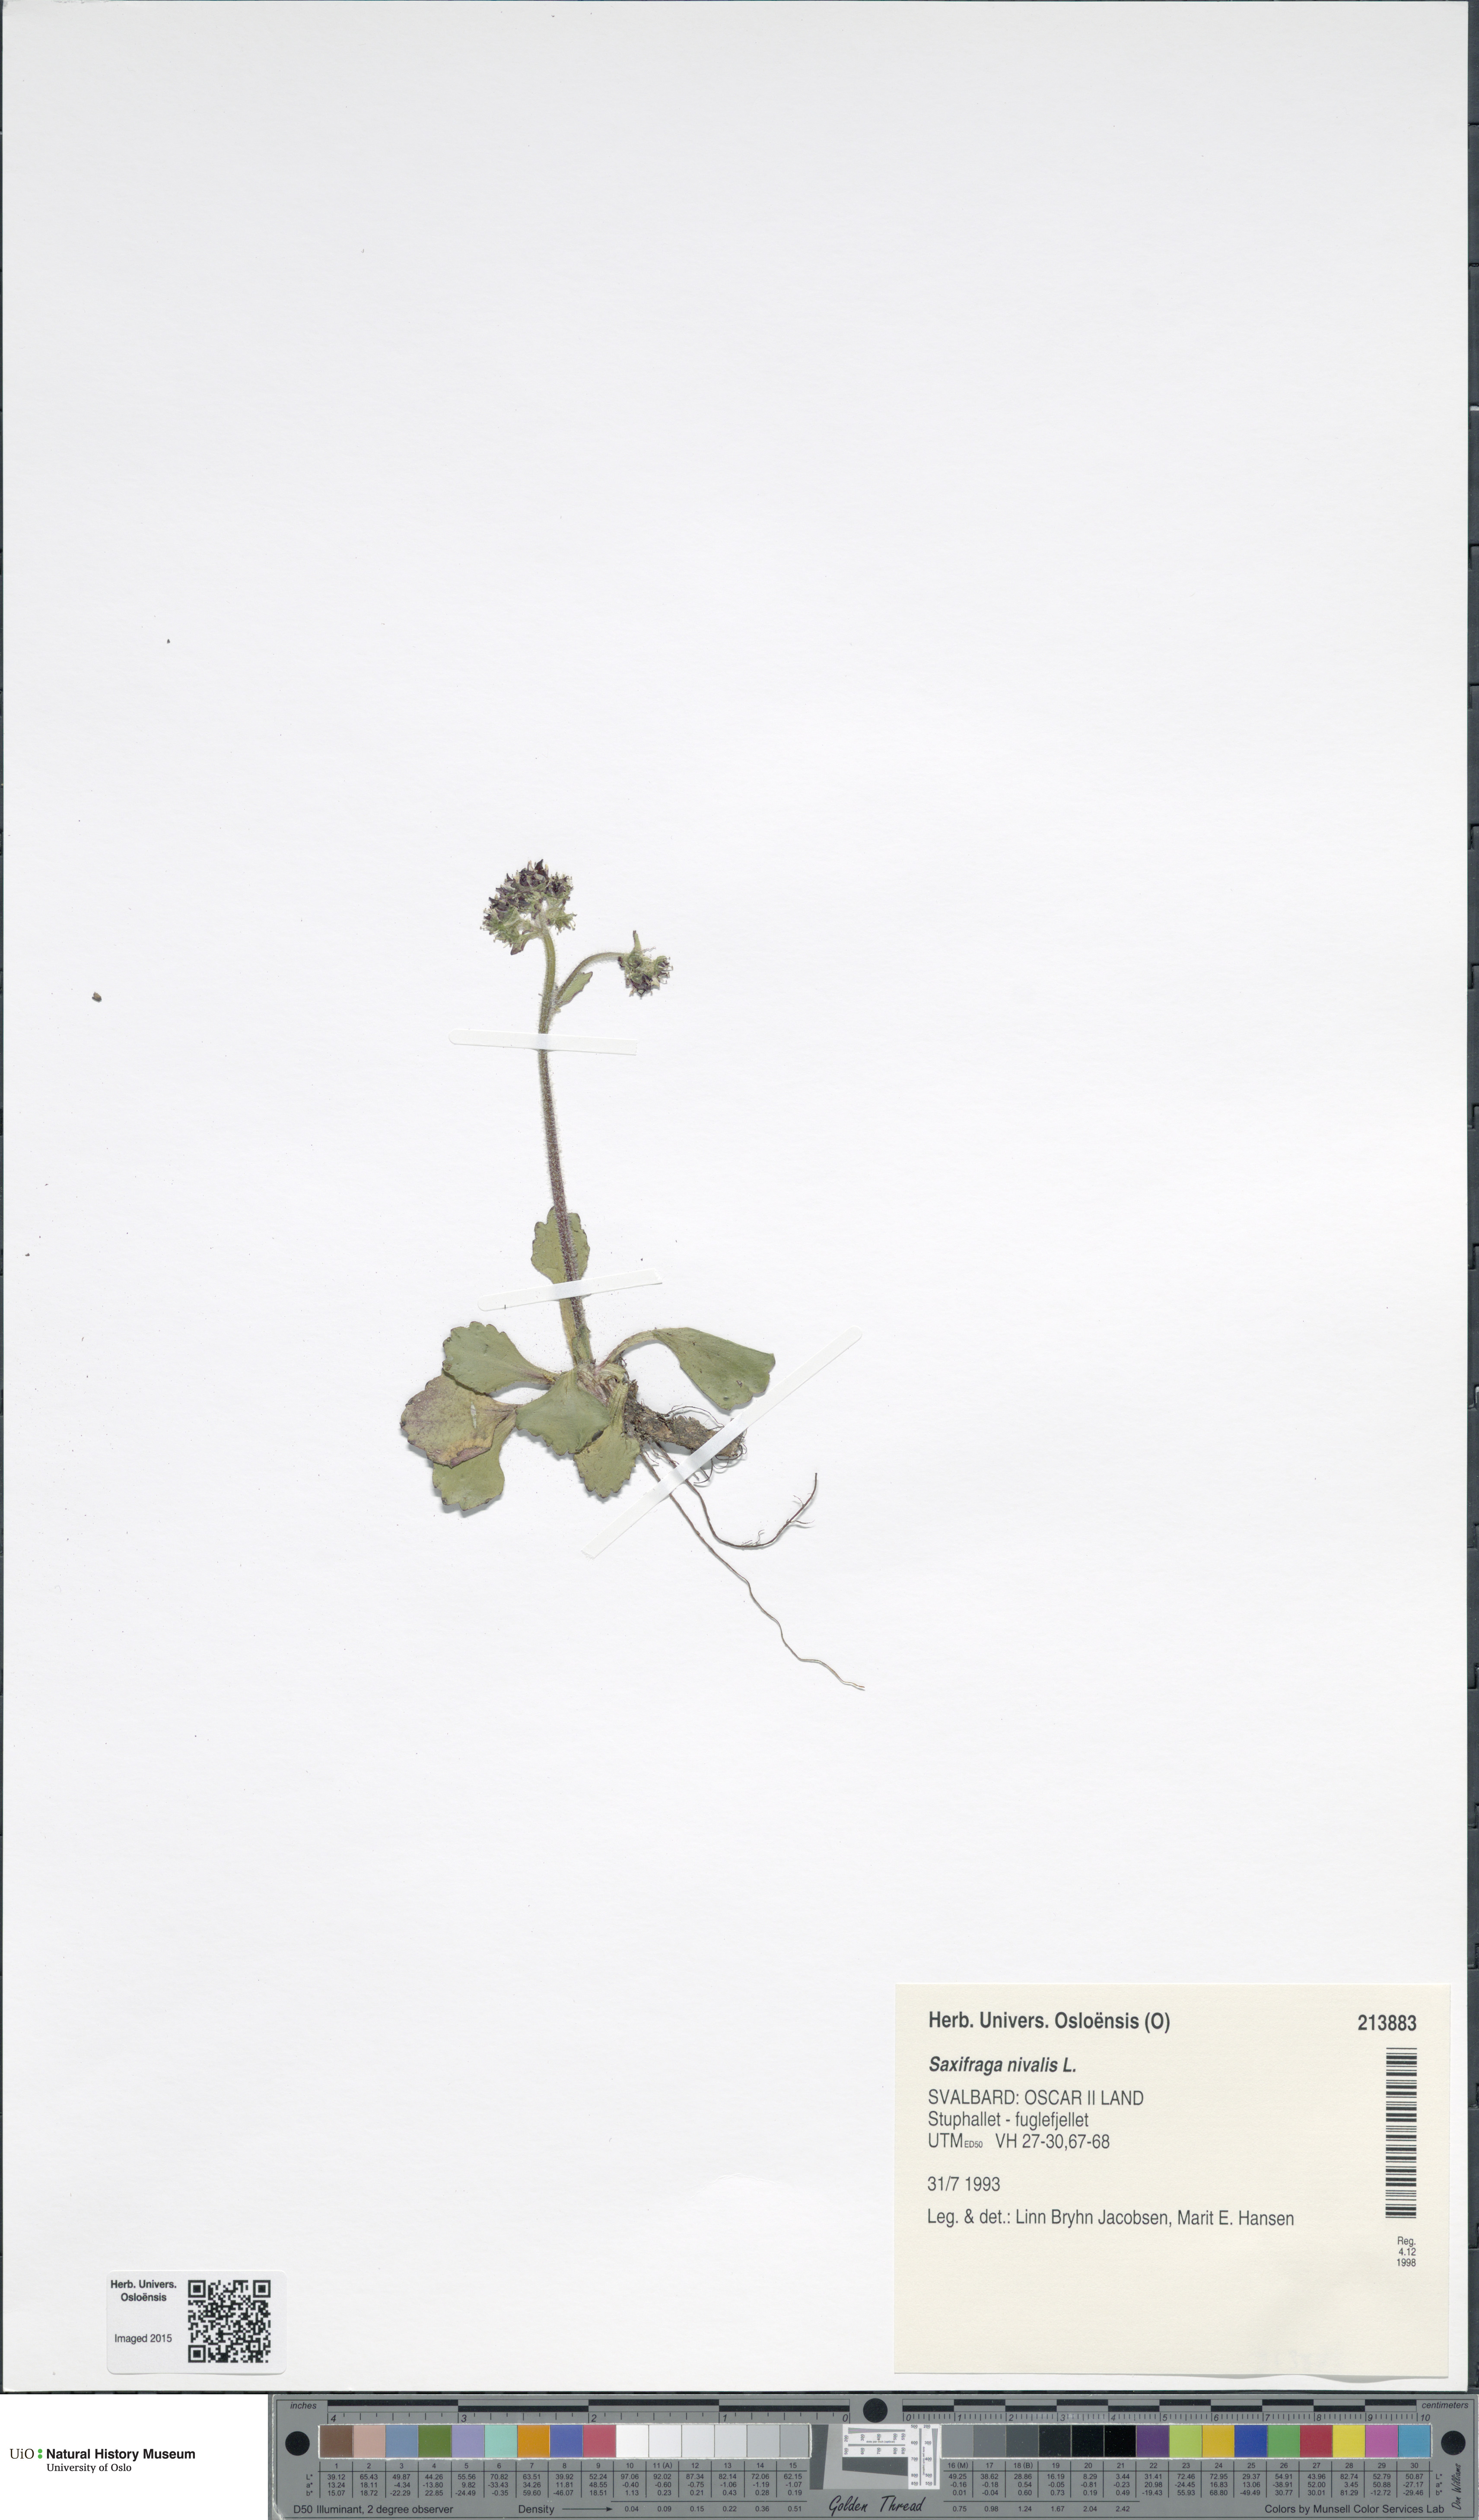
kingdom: Plantae
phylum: Tracheophyta
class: Magnoliopsida
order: Saxifragales
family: Saxifragaceae
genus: Micranthes
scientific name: Micranthes nivalis
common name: Alpine saxifrage
